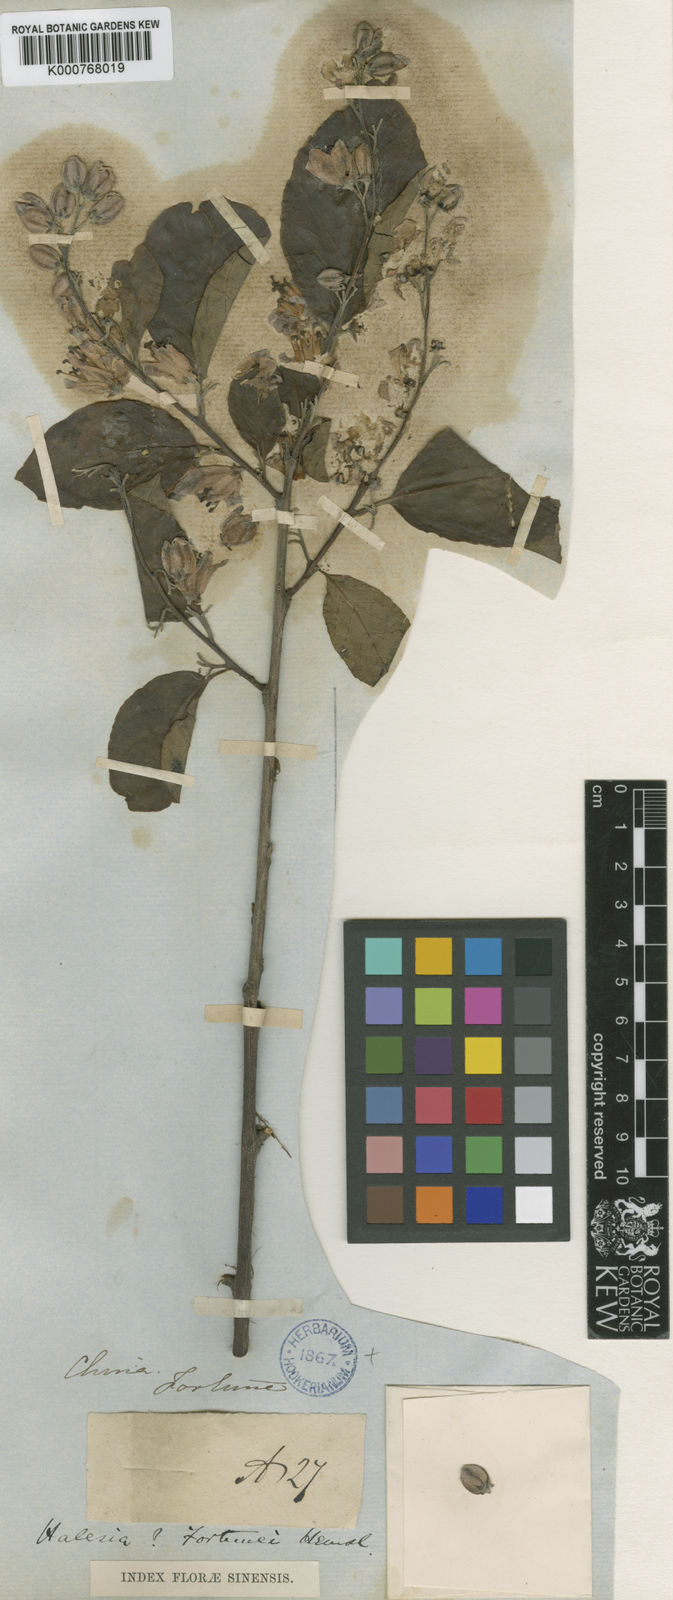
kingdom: Plantae
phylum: Tracheophyta
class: Magnoliopsida
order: Ericales
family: Styracaceae
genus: Alniphyllum
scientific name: Alniphyllum fortunei
